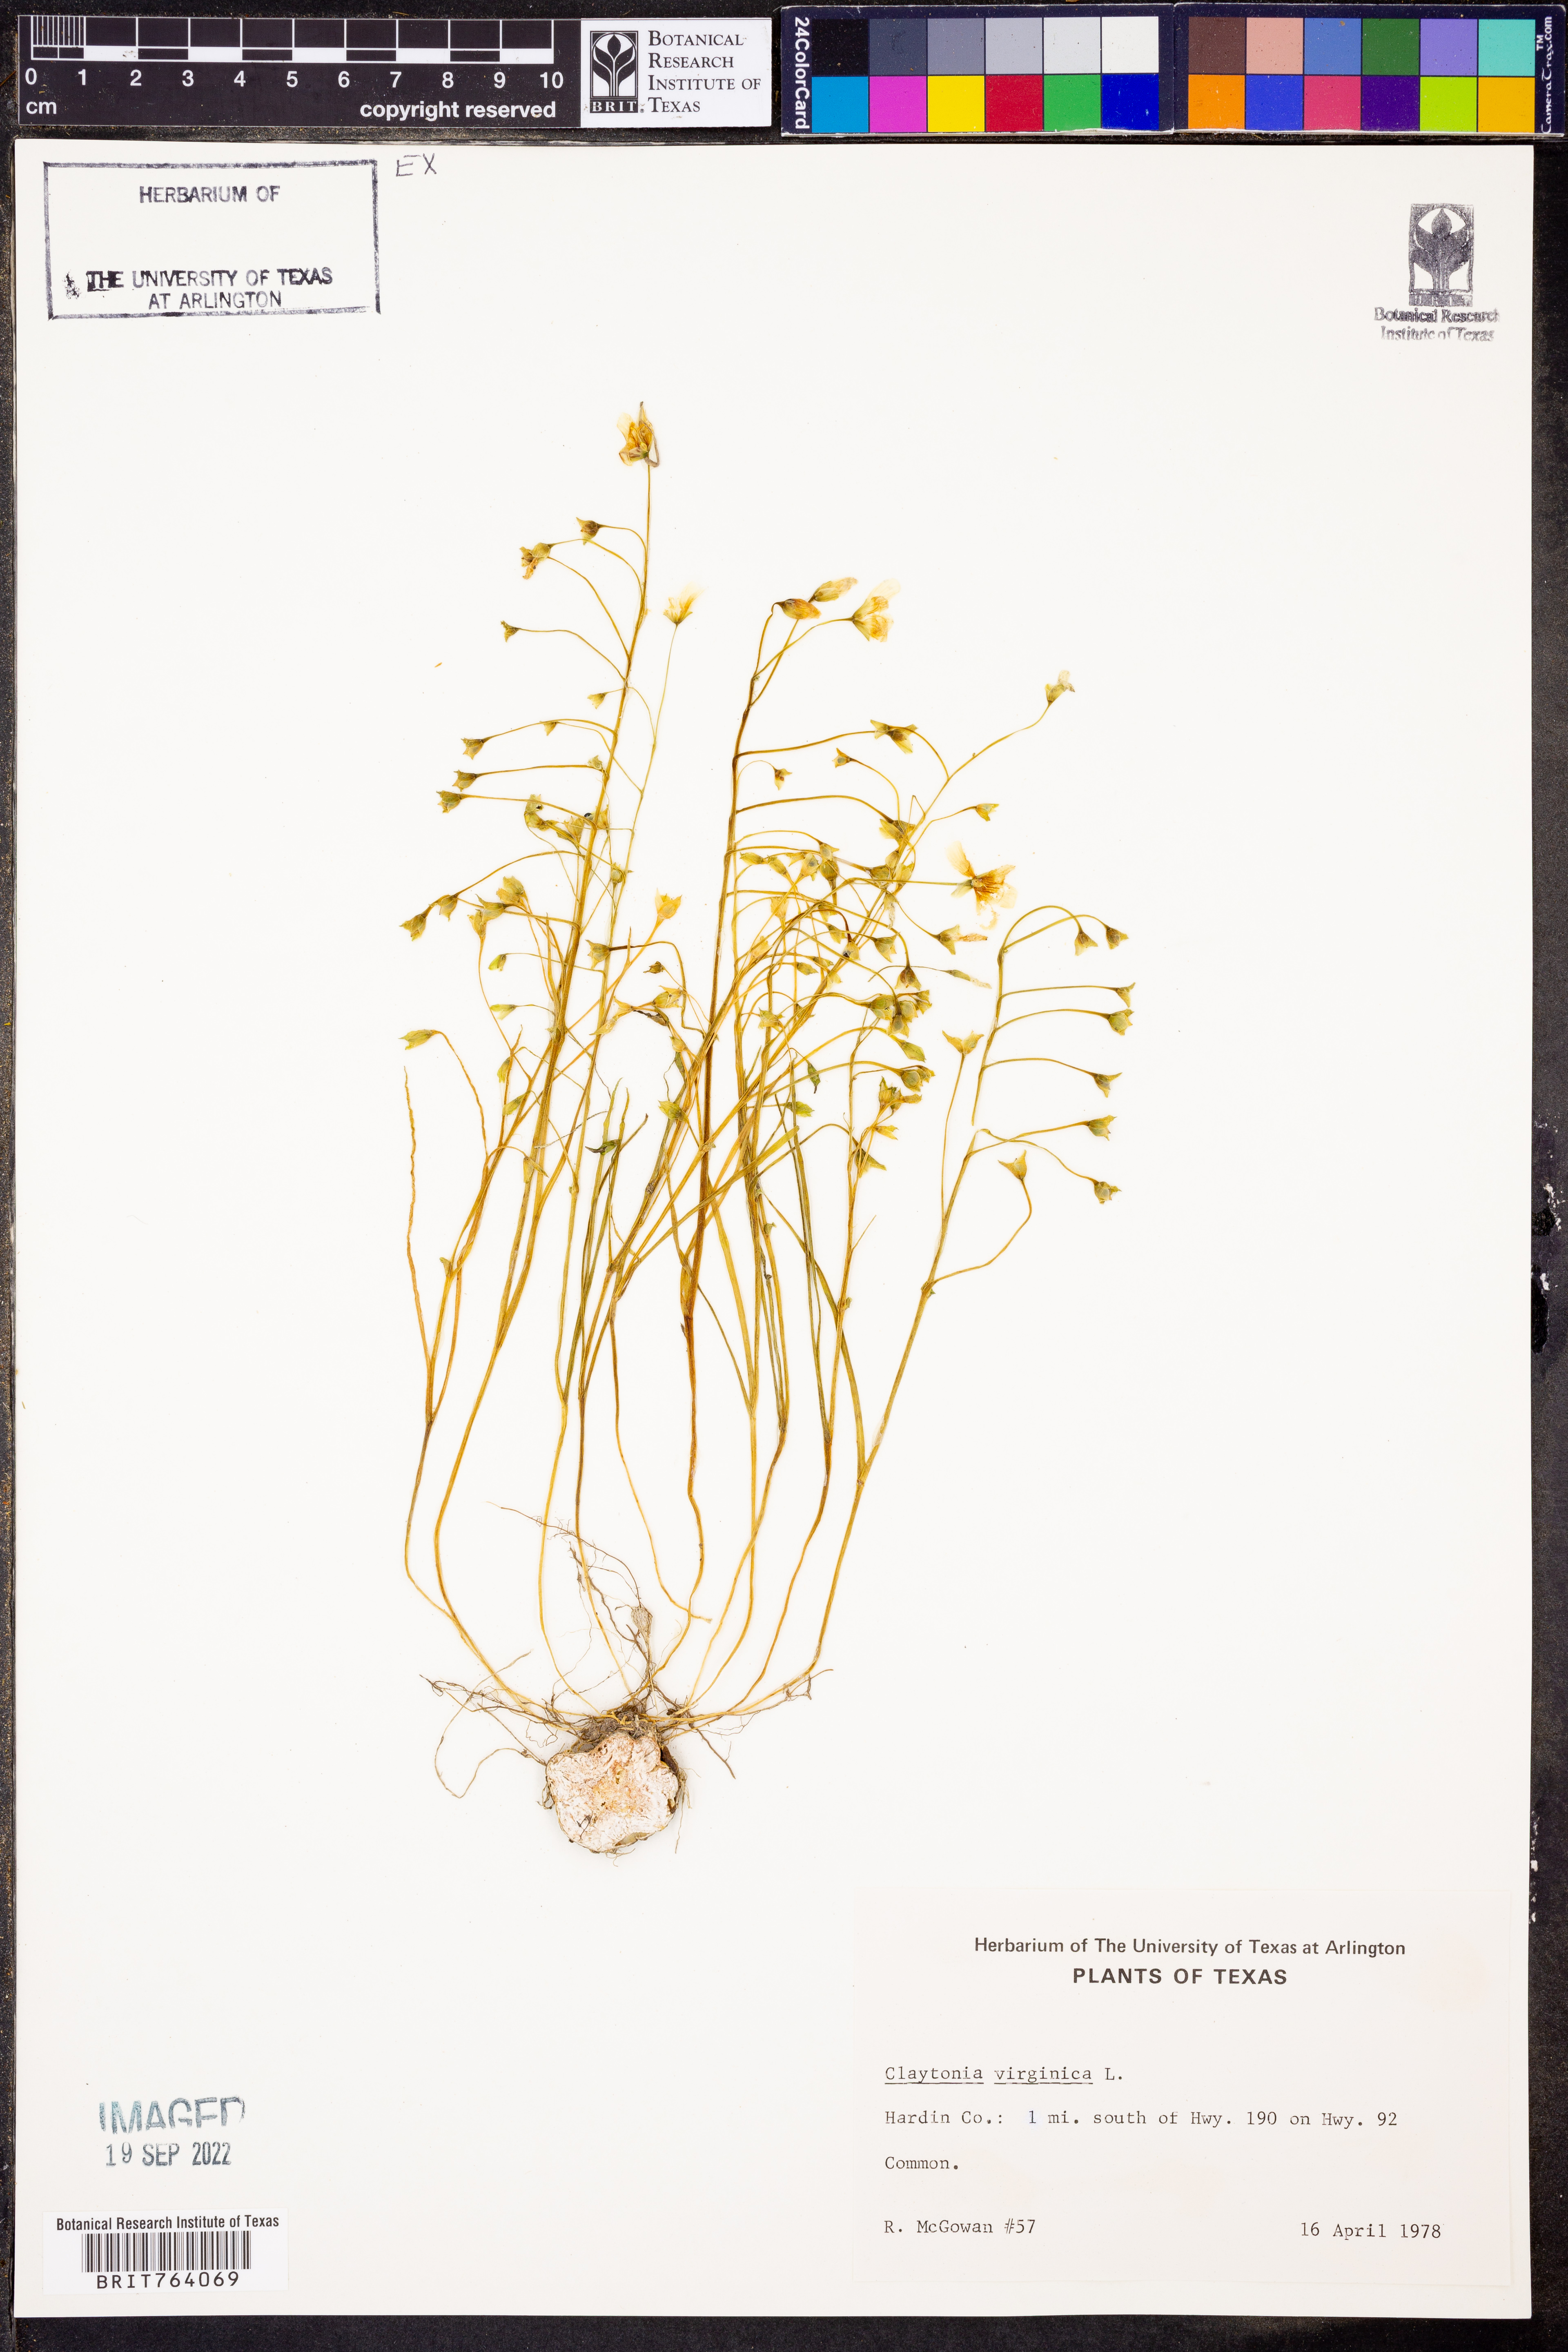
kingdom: Plantae
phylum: Tracheophyta
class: Magnoliopsida
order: Caryophyllales
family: Montiaceae
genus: Claytonia
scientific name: Claytonia virginica
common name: Virginia springbeauty
